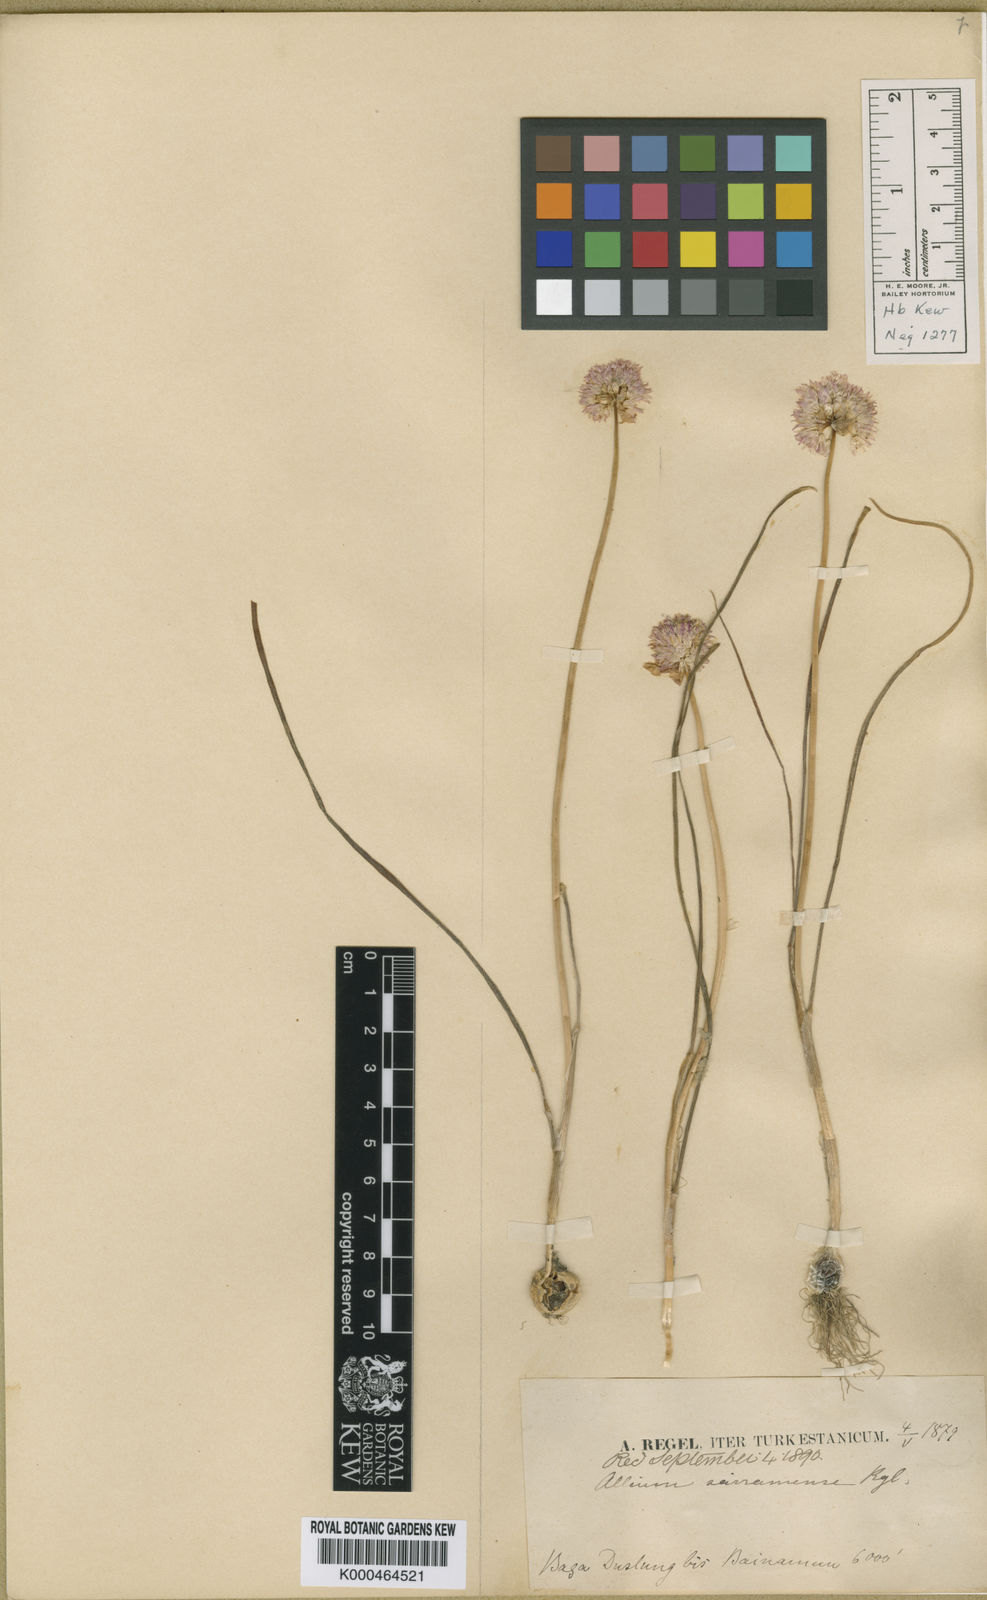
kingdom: Plantae
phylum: Tracheophyta
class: Liliopsida
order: Asparagales
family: Amaryllidaceae
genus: Allium
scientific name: Allium schoenoprasoides
